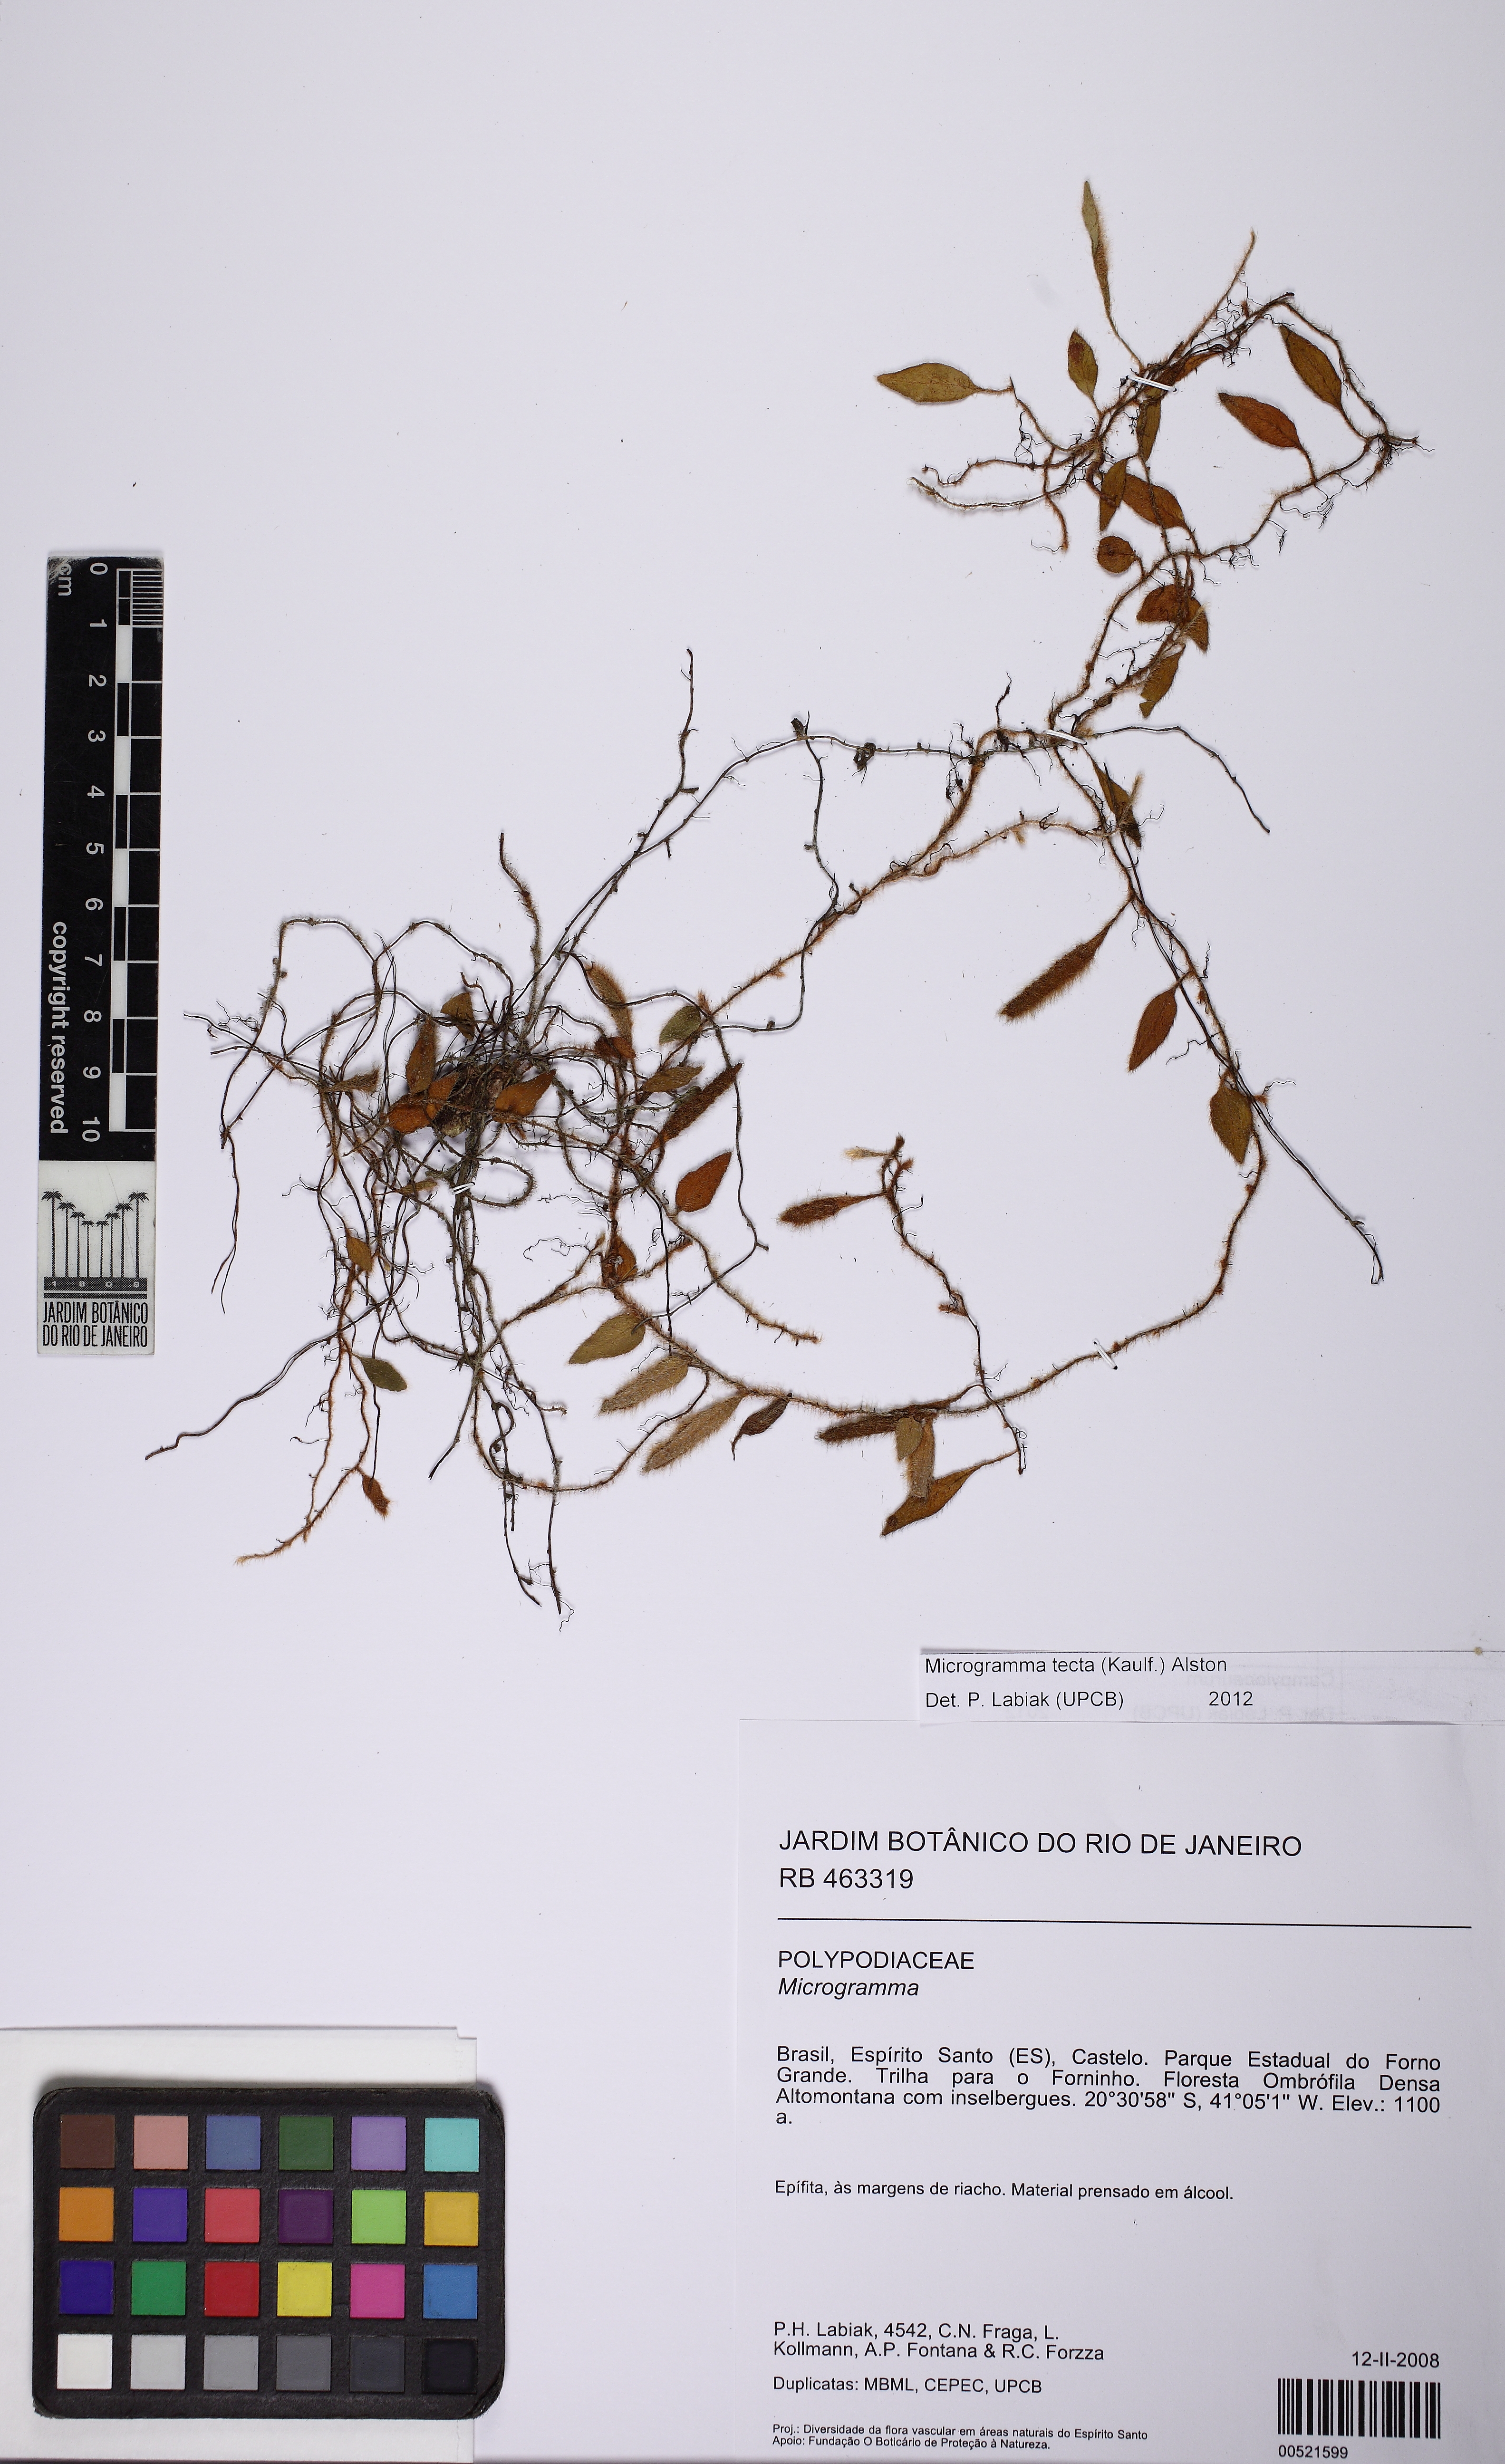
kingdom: Plantae
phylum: Tracheophyta
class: Polypodiopsida
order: Polypodiales
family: Polypodiaceae
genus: Microgramma
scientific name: Microgramma tecta
